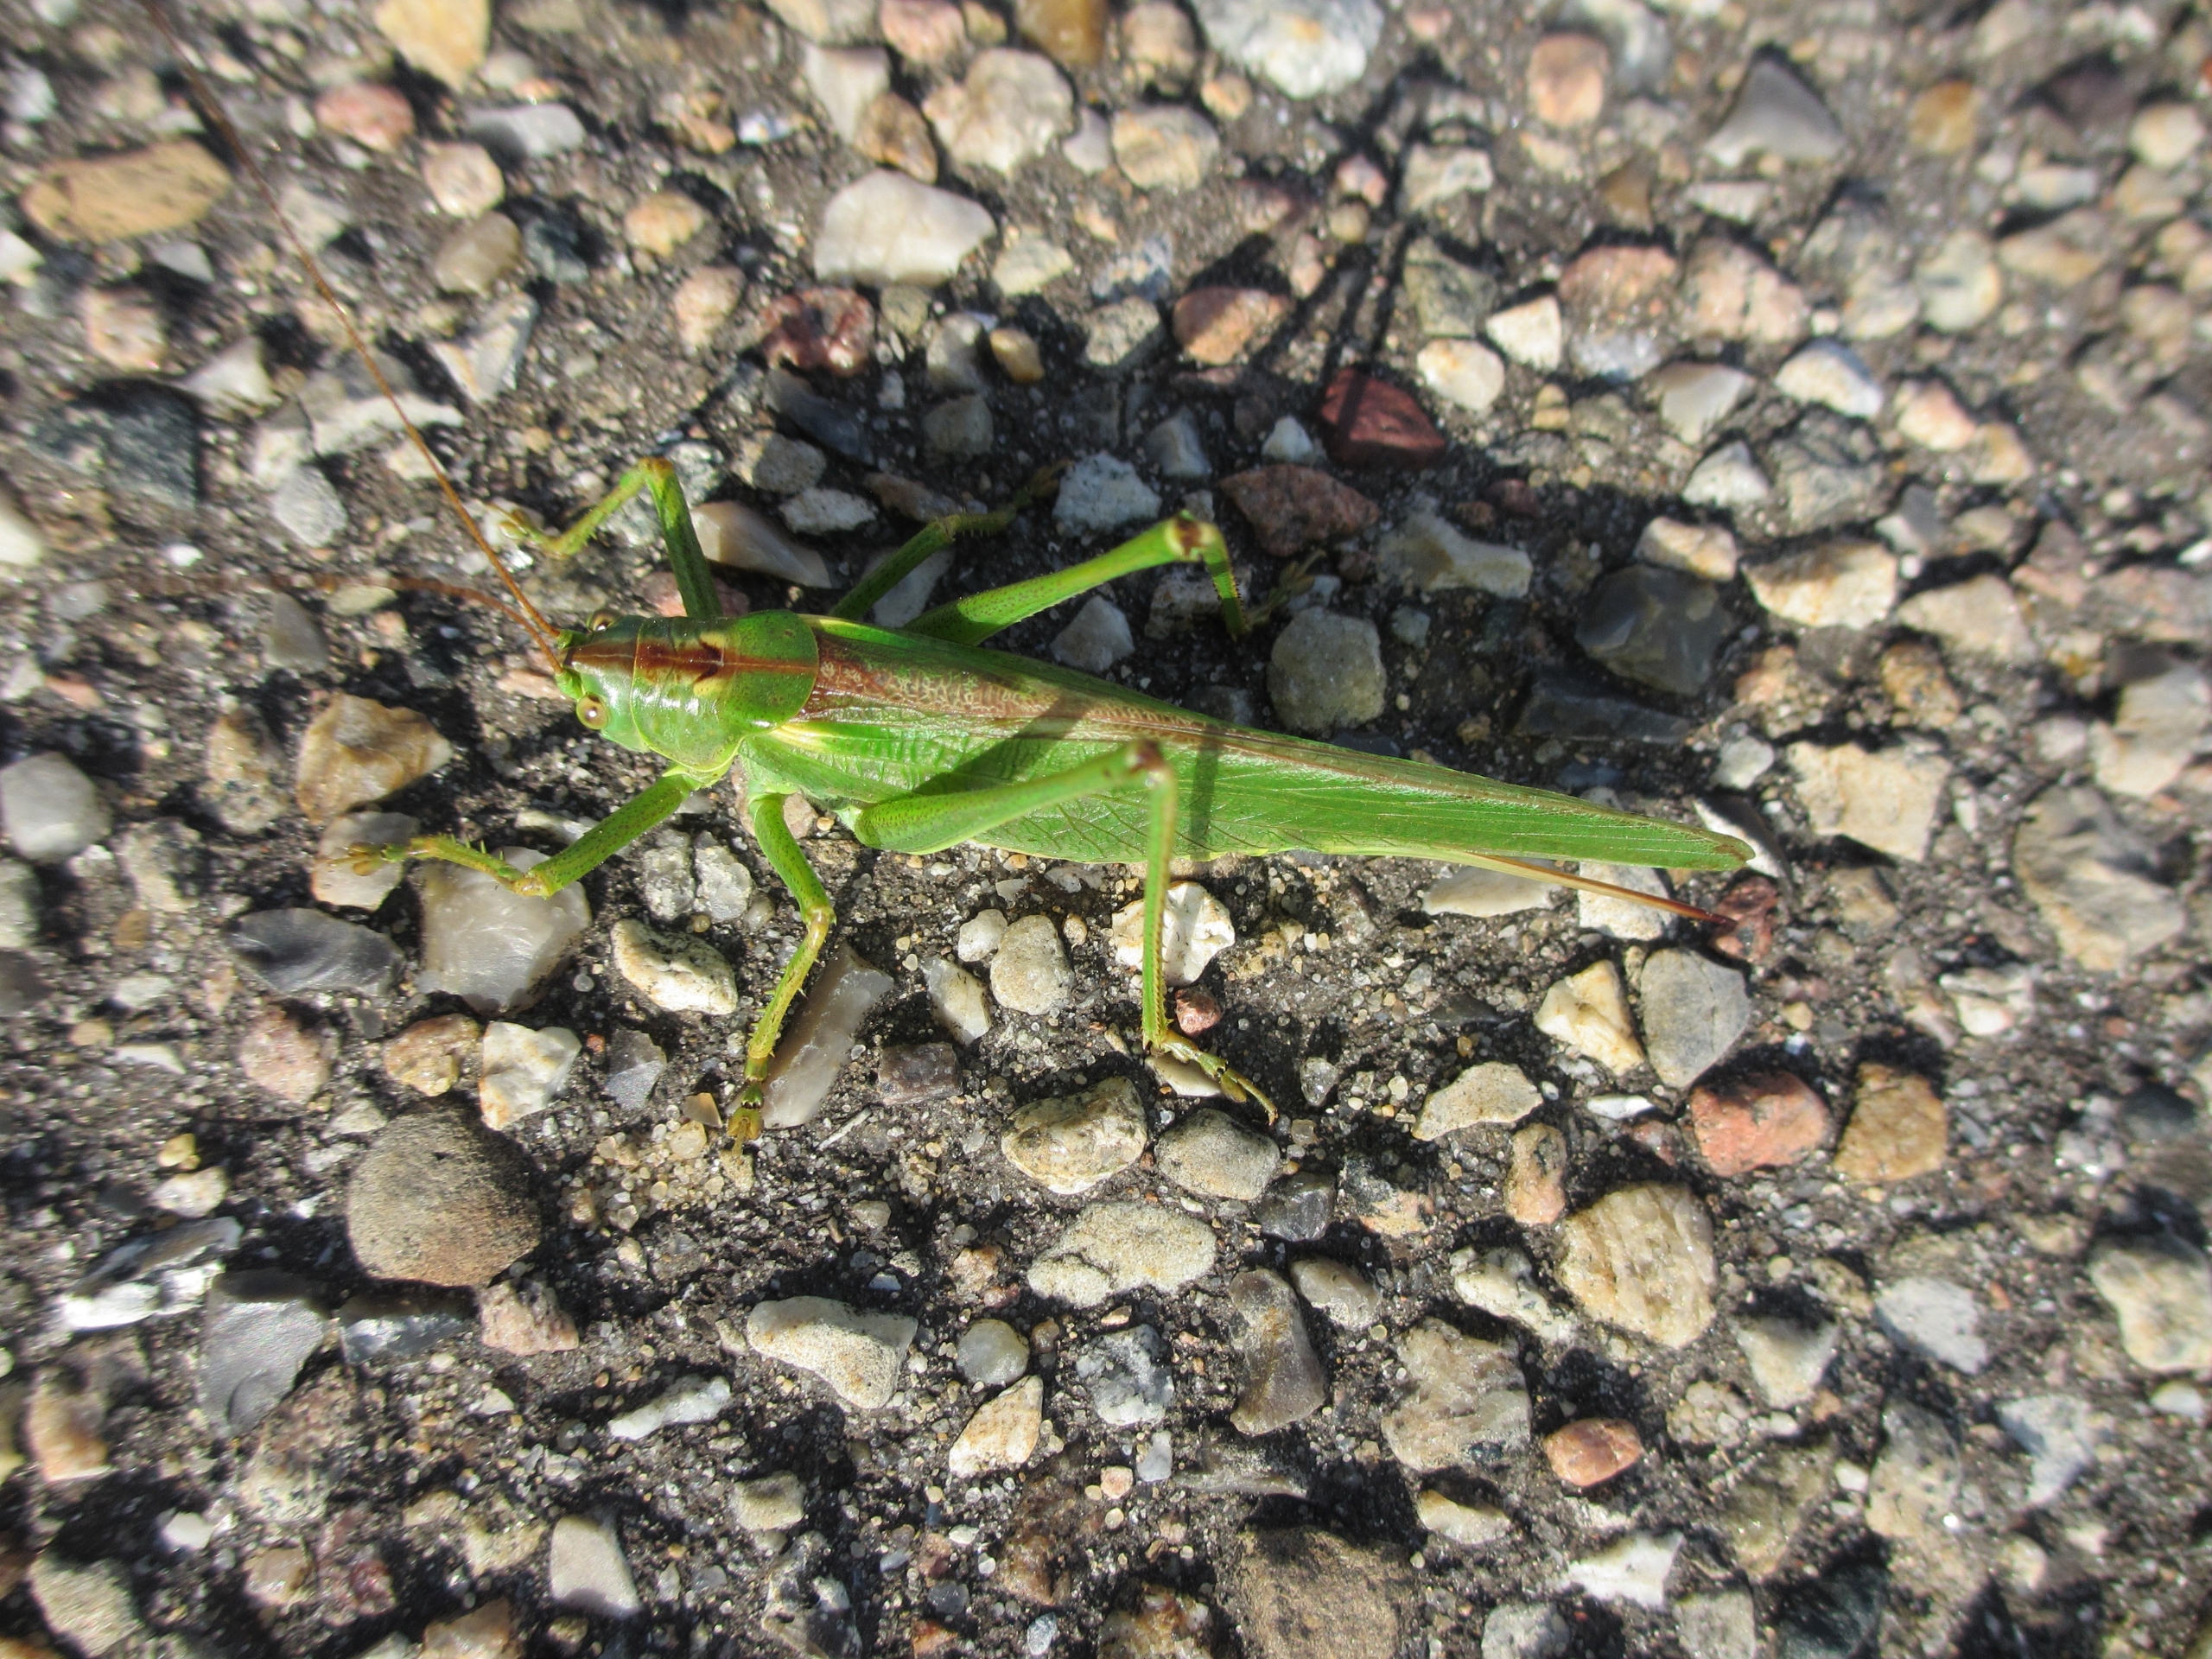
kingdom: Animalia
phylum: Arthropoda
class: Insecta
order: Orthoptera
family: Tettigoniidae
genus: Tettigonia
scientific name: Tettigonia viridissima
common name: Stor grøn løvgræshoppe
